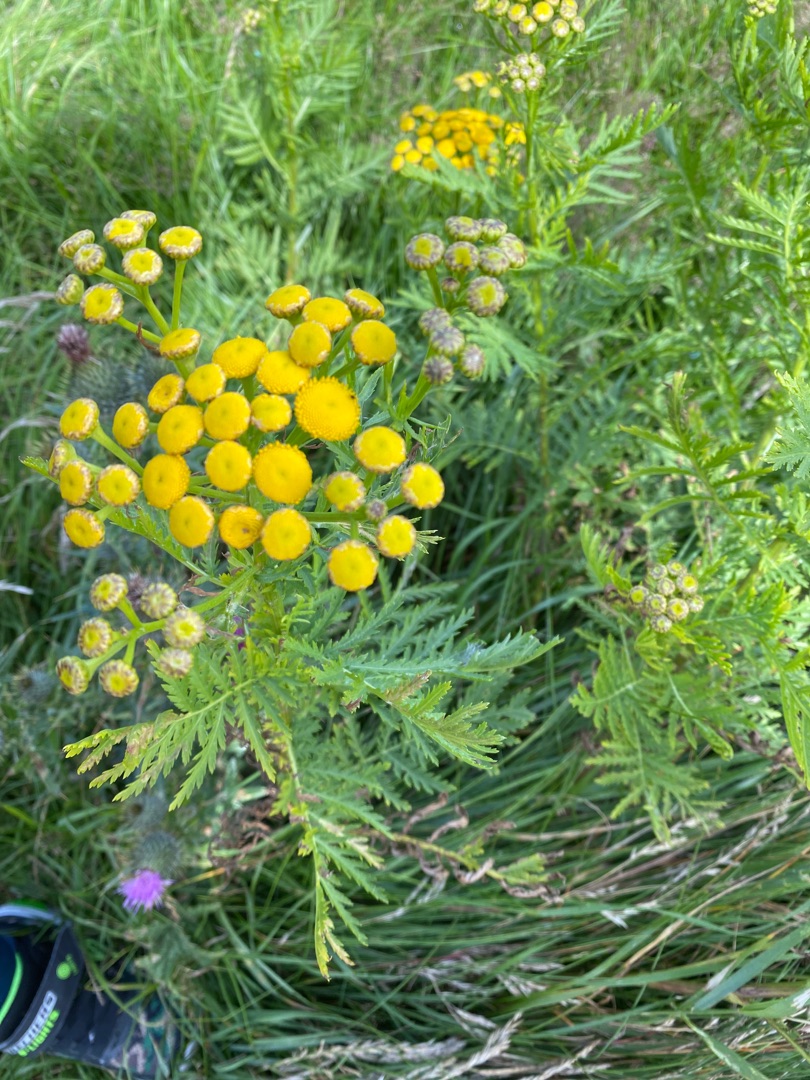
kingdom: Plantae
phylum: Tracheophyta
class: Magnoliopsida
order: Asterales
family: Asteraceae
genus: Tanacetum
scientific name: Tanacetum vulgare
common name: Rejnfan
